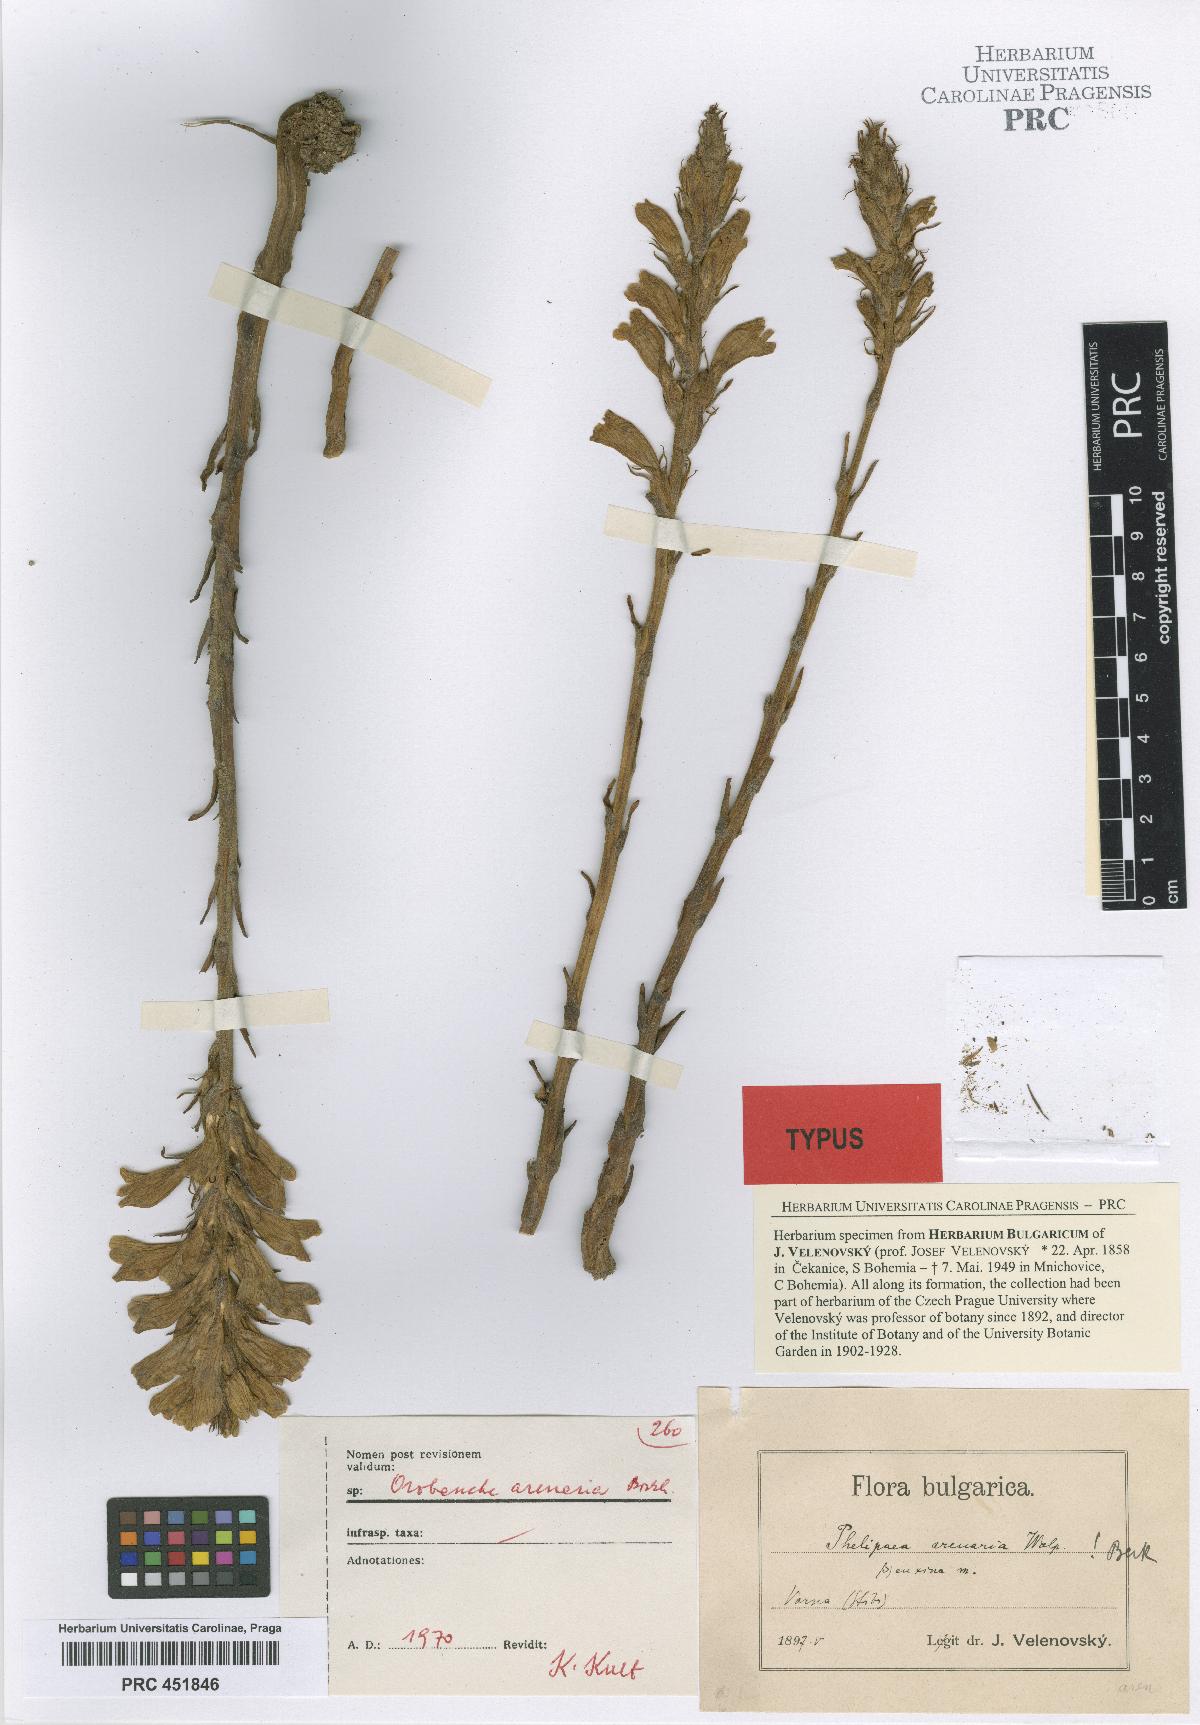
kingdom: Plantae
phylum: Tracheophyta
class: Magnoliopsida
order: Lamiales
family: Orobanchaceae
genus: Phelipanche
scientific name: Phelipanche arenaria
